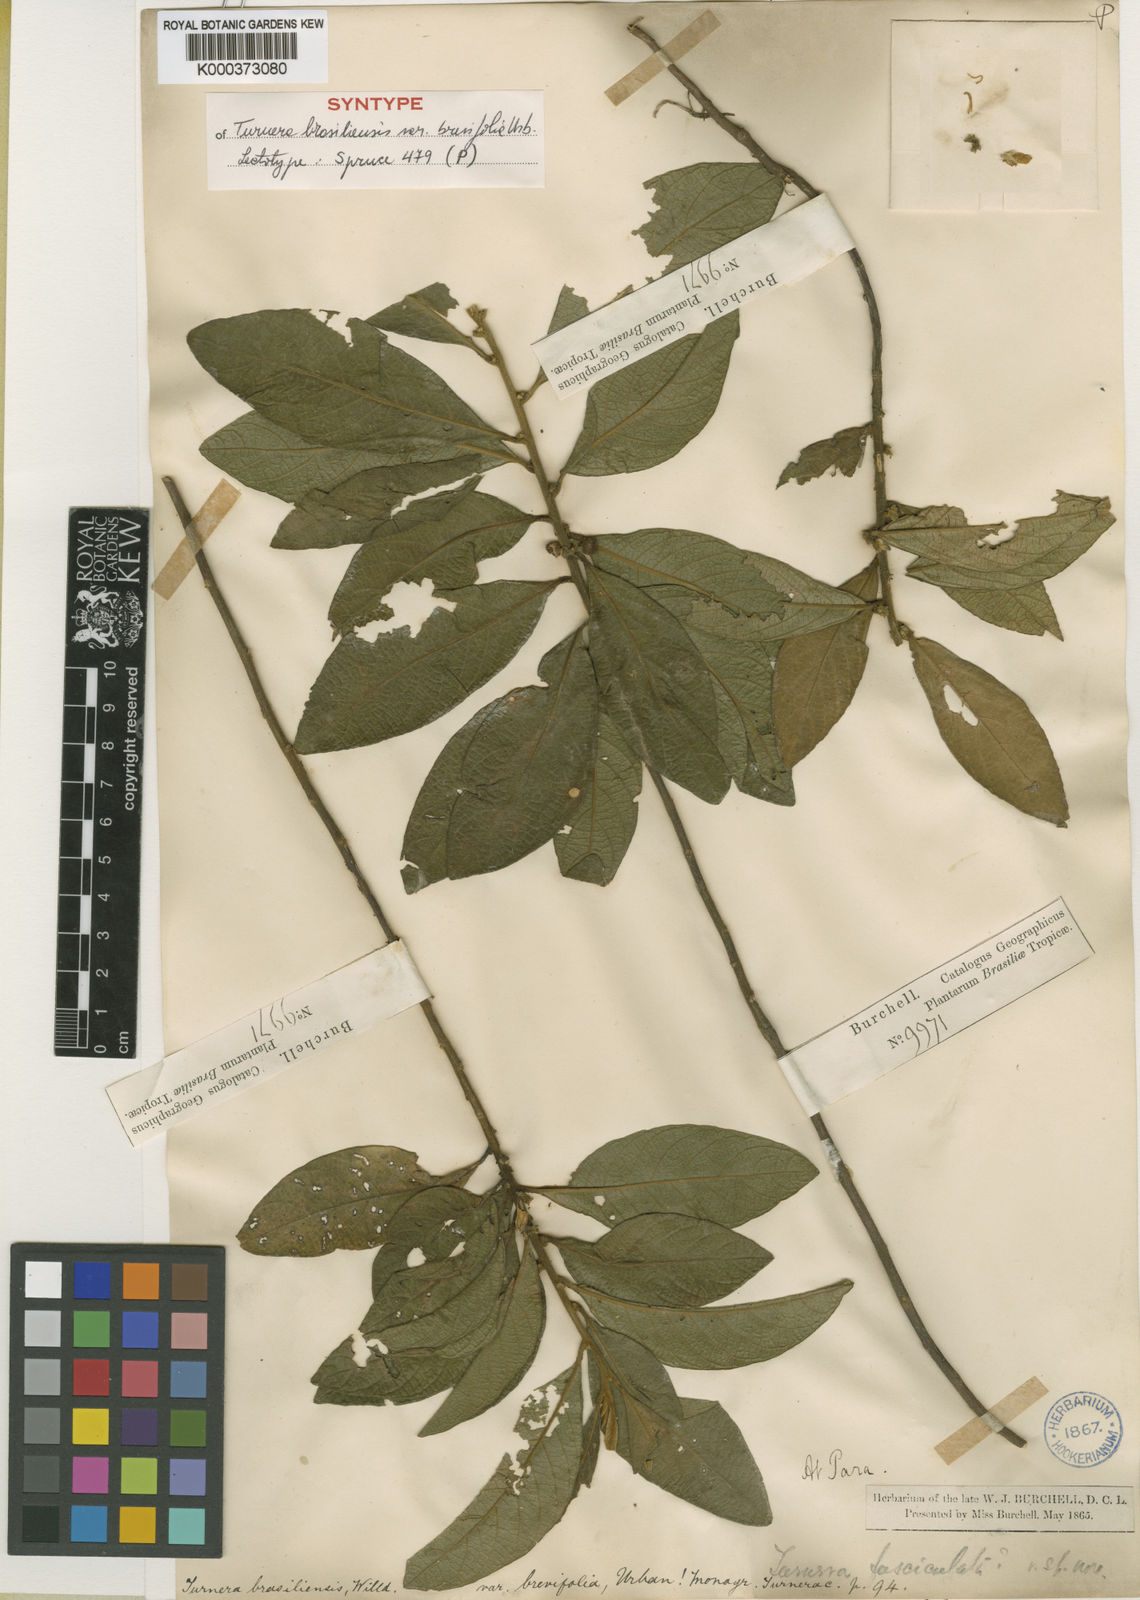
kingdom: Plantae
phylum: Tracheophyta
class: Magnoliopsida
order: Malpighiales
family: Turneraceae
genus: Turnera
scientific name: Turnera brasiliensis
